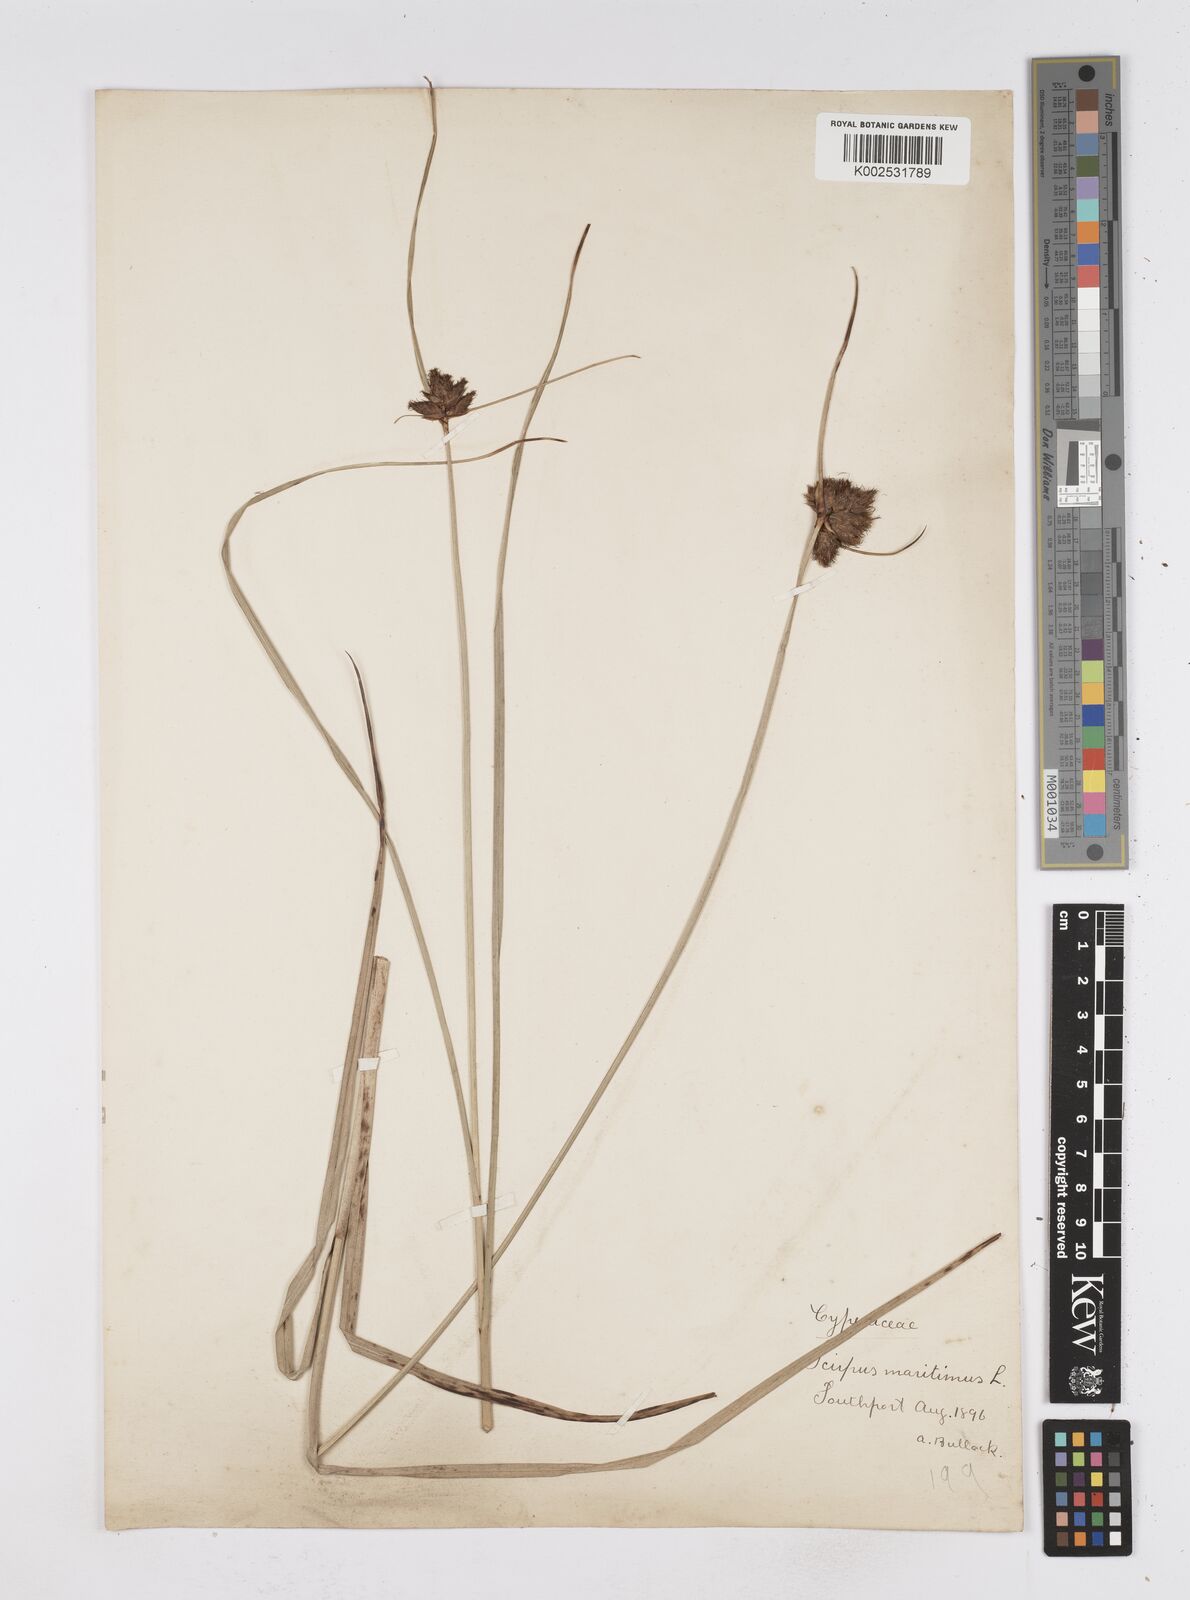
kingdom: Plantae
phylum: Tracheophyta
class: Liliopsida
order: Poales
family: Cyperaceae
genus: Bolboschoenus
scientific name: Bolboschoenus maritimus
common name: Sea club-rush
